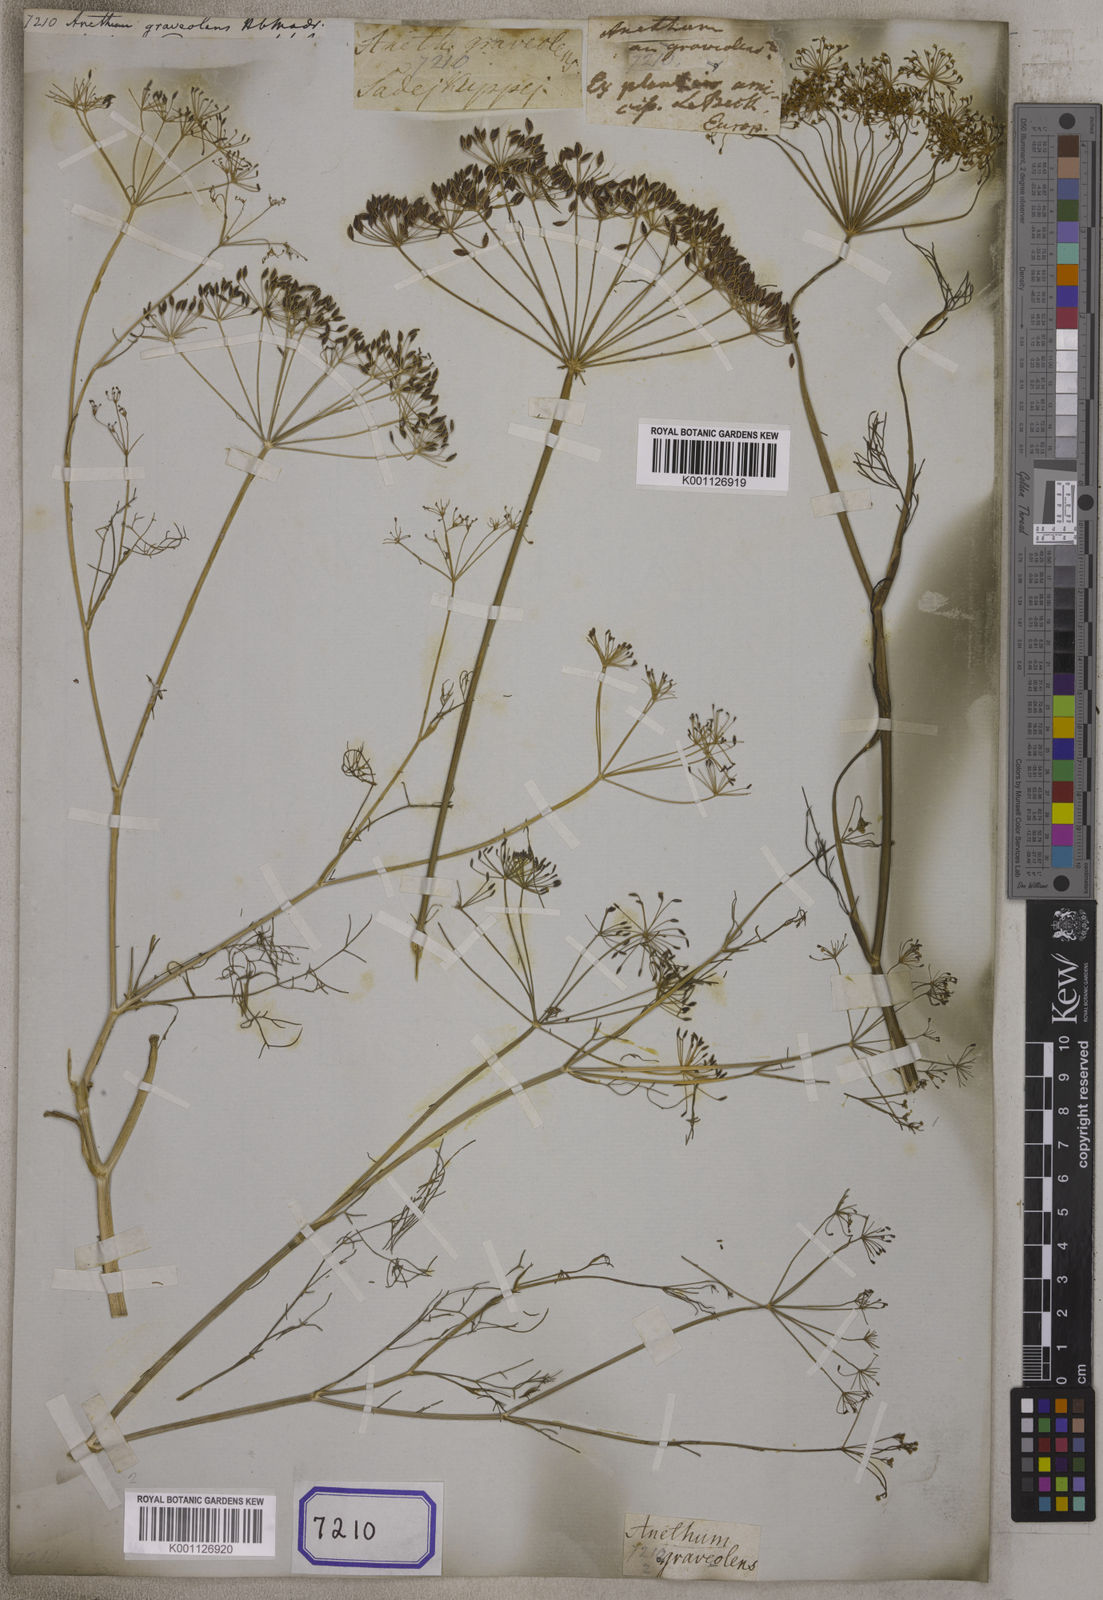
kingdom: Plantae
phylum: Tracheophyta
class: Magnoliopsida
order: Apiales
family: Apiaceae
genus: Anethum
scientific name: Anethum graveolens
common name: Dill
